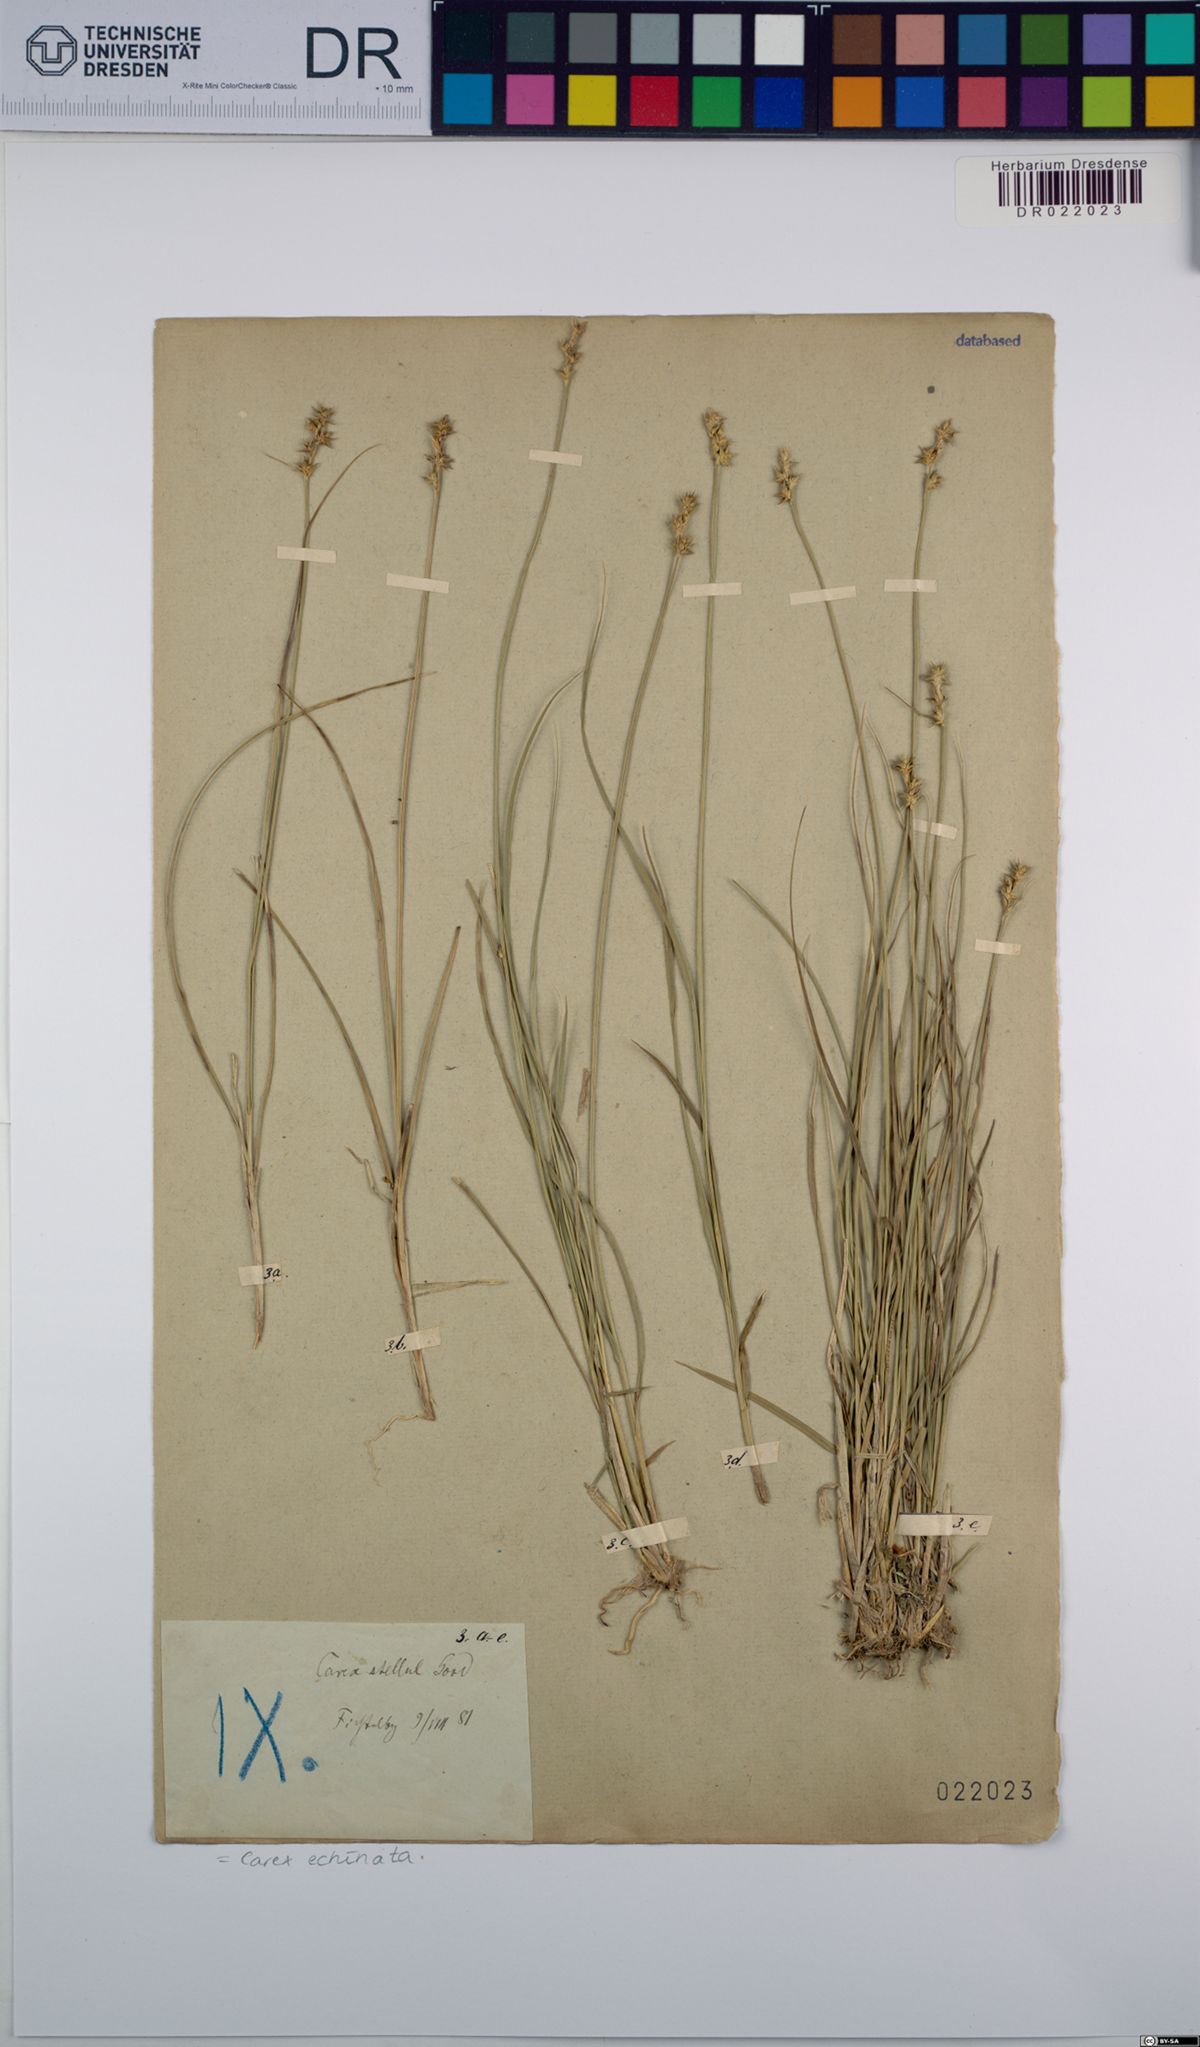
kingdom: Plantae
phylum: Tracheophyta
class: Liliopsida
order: Poales
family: Cyperaceae
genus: Carex
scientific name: Carex echinata
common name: Star sedge
